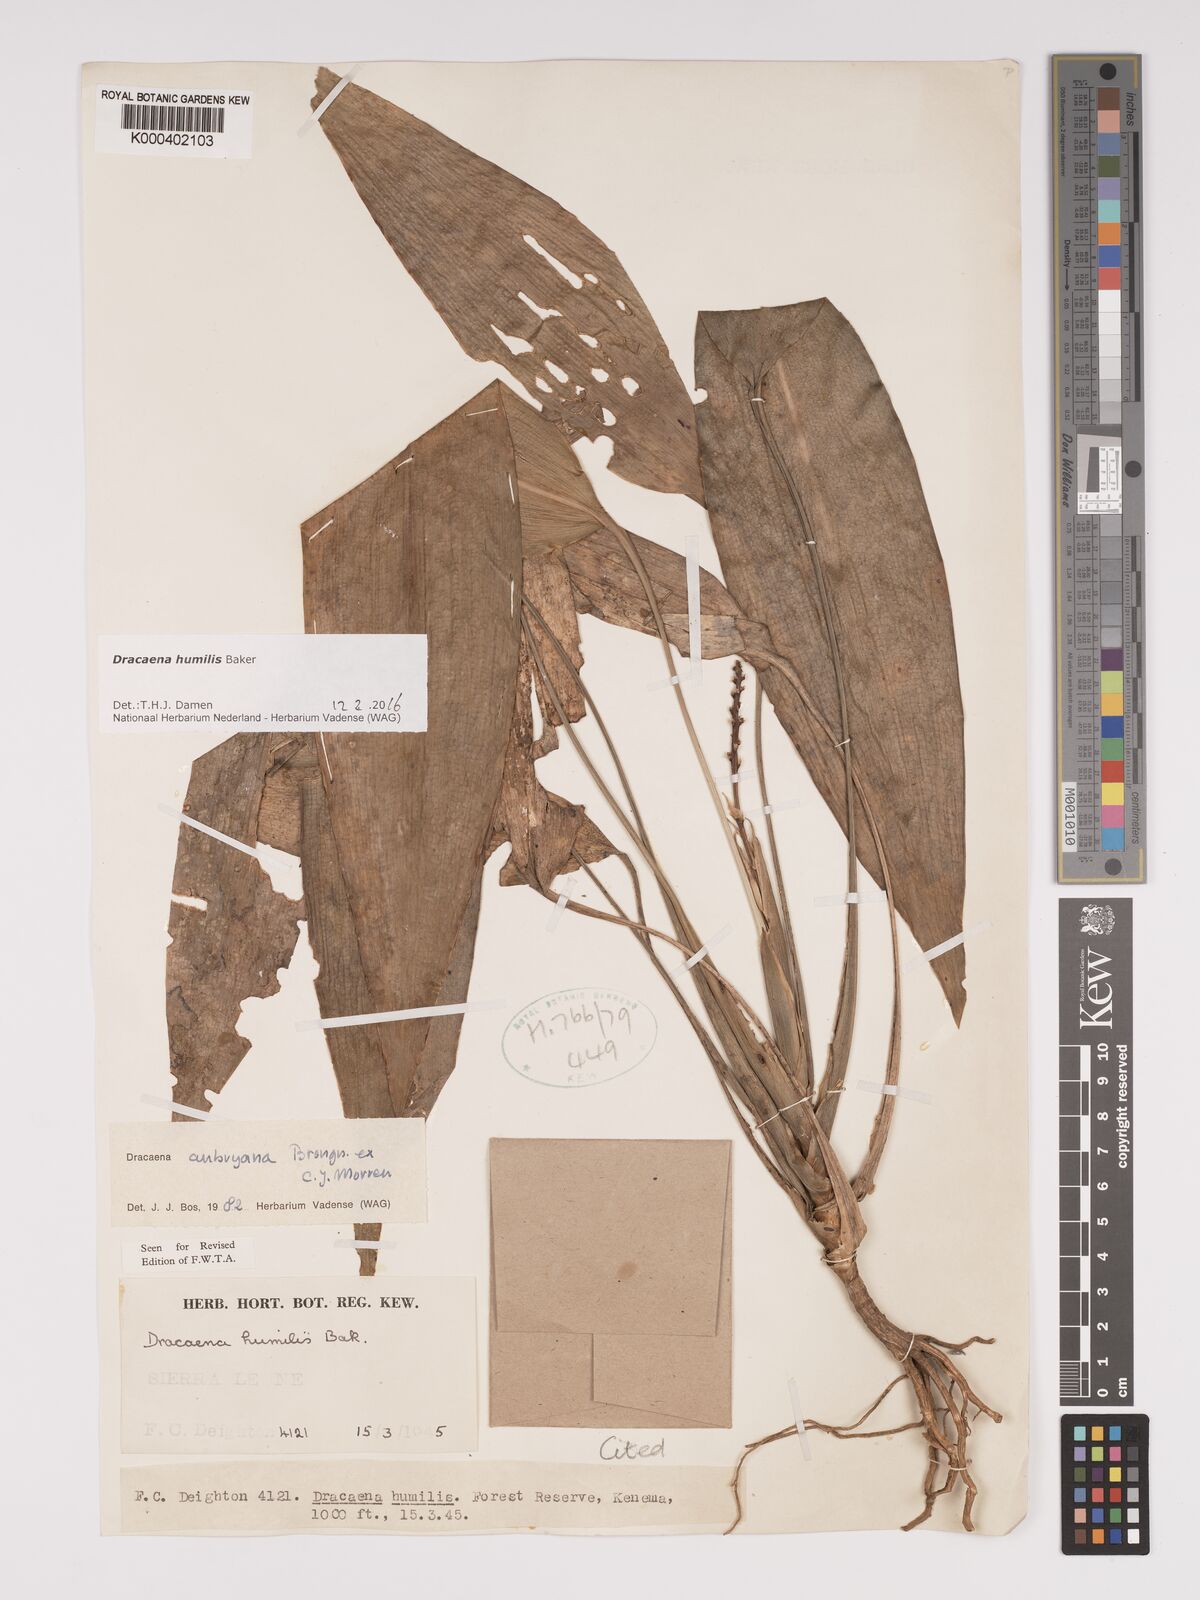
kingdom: Plantae
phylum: Tracheophyta
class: Liliopsida
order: Asparagales
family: Asparagaceae
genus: Dracaena
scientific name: Dracaena aubryana
